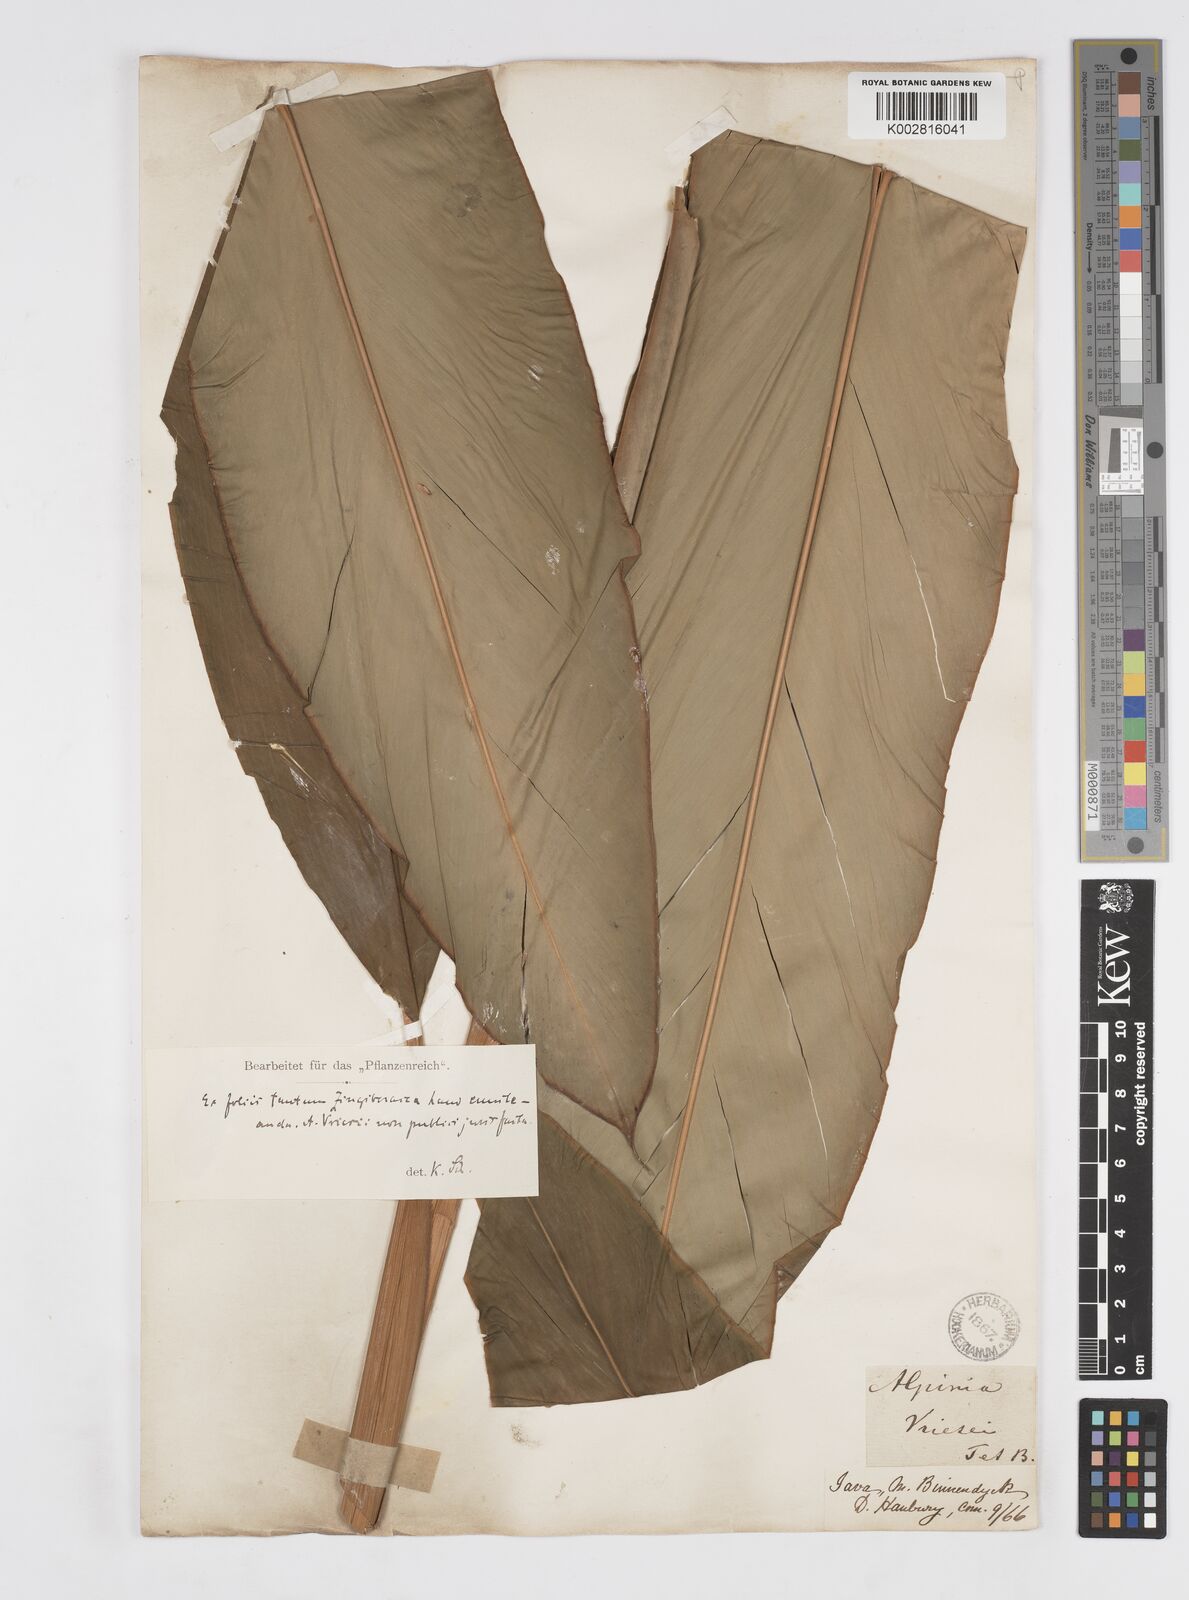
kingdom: Plantae
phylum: Tracheophyta
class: Liliopsida
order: Zingiberales
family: Zingiberaceae
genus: Alpinia
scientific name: Alpinia
